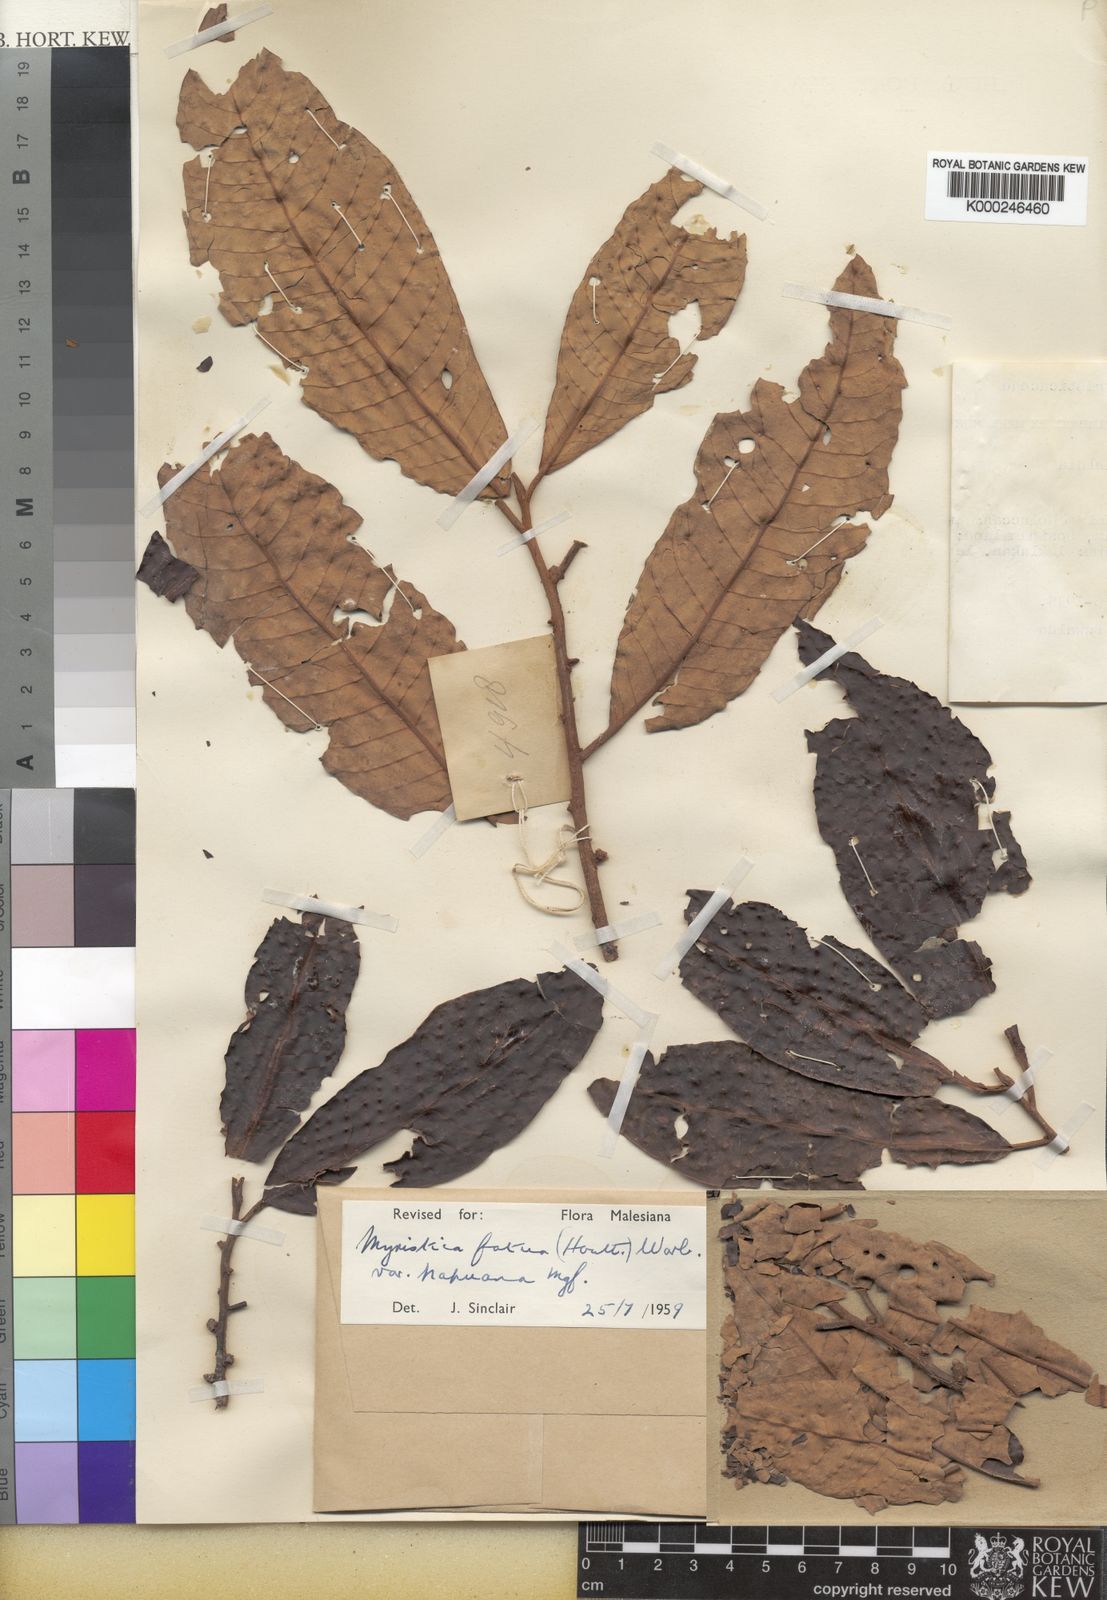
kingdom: Plantae
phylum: Tracheophyta
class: Magnoliopsida
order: Magnoliales
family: Myristicaceae
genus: Myristica
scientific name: Myristica fatua
